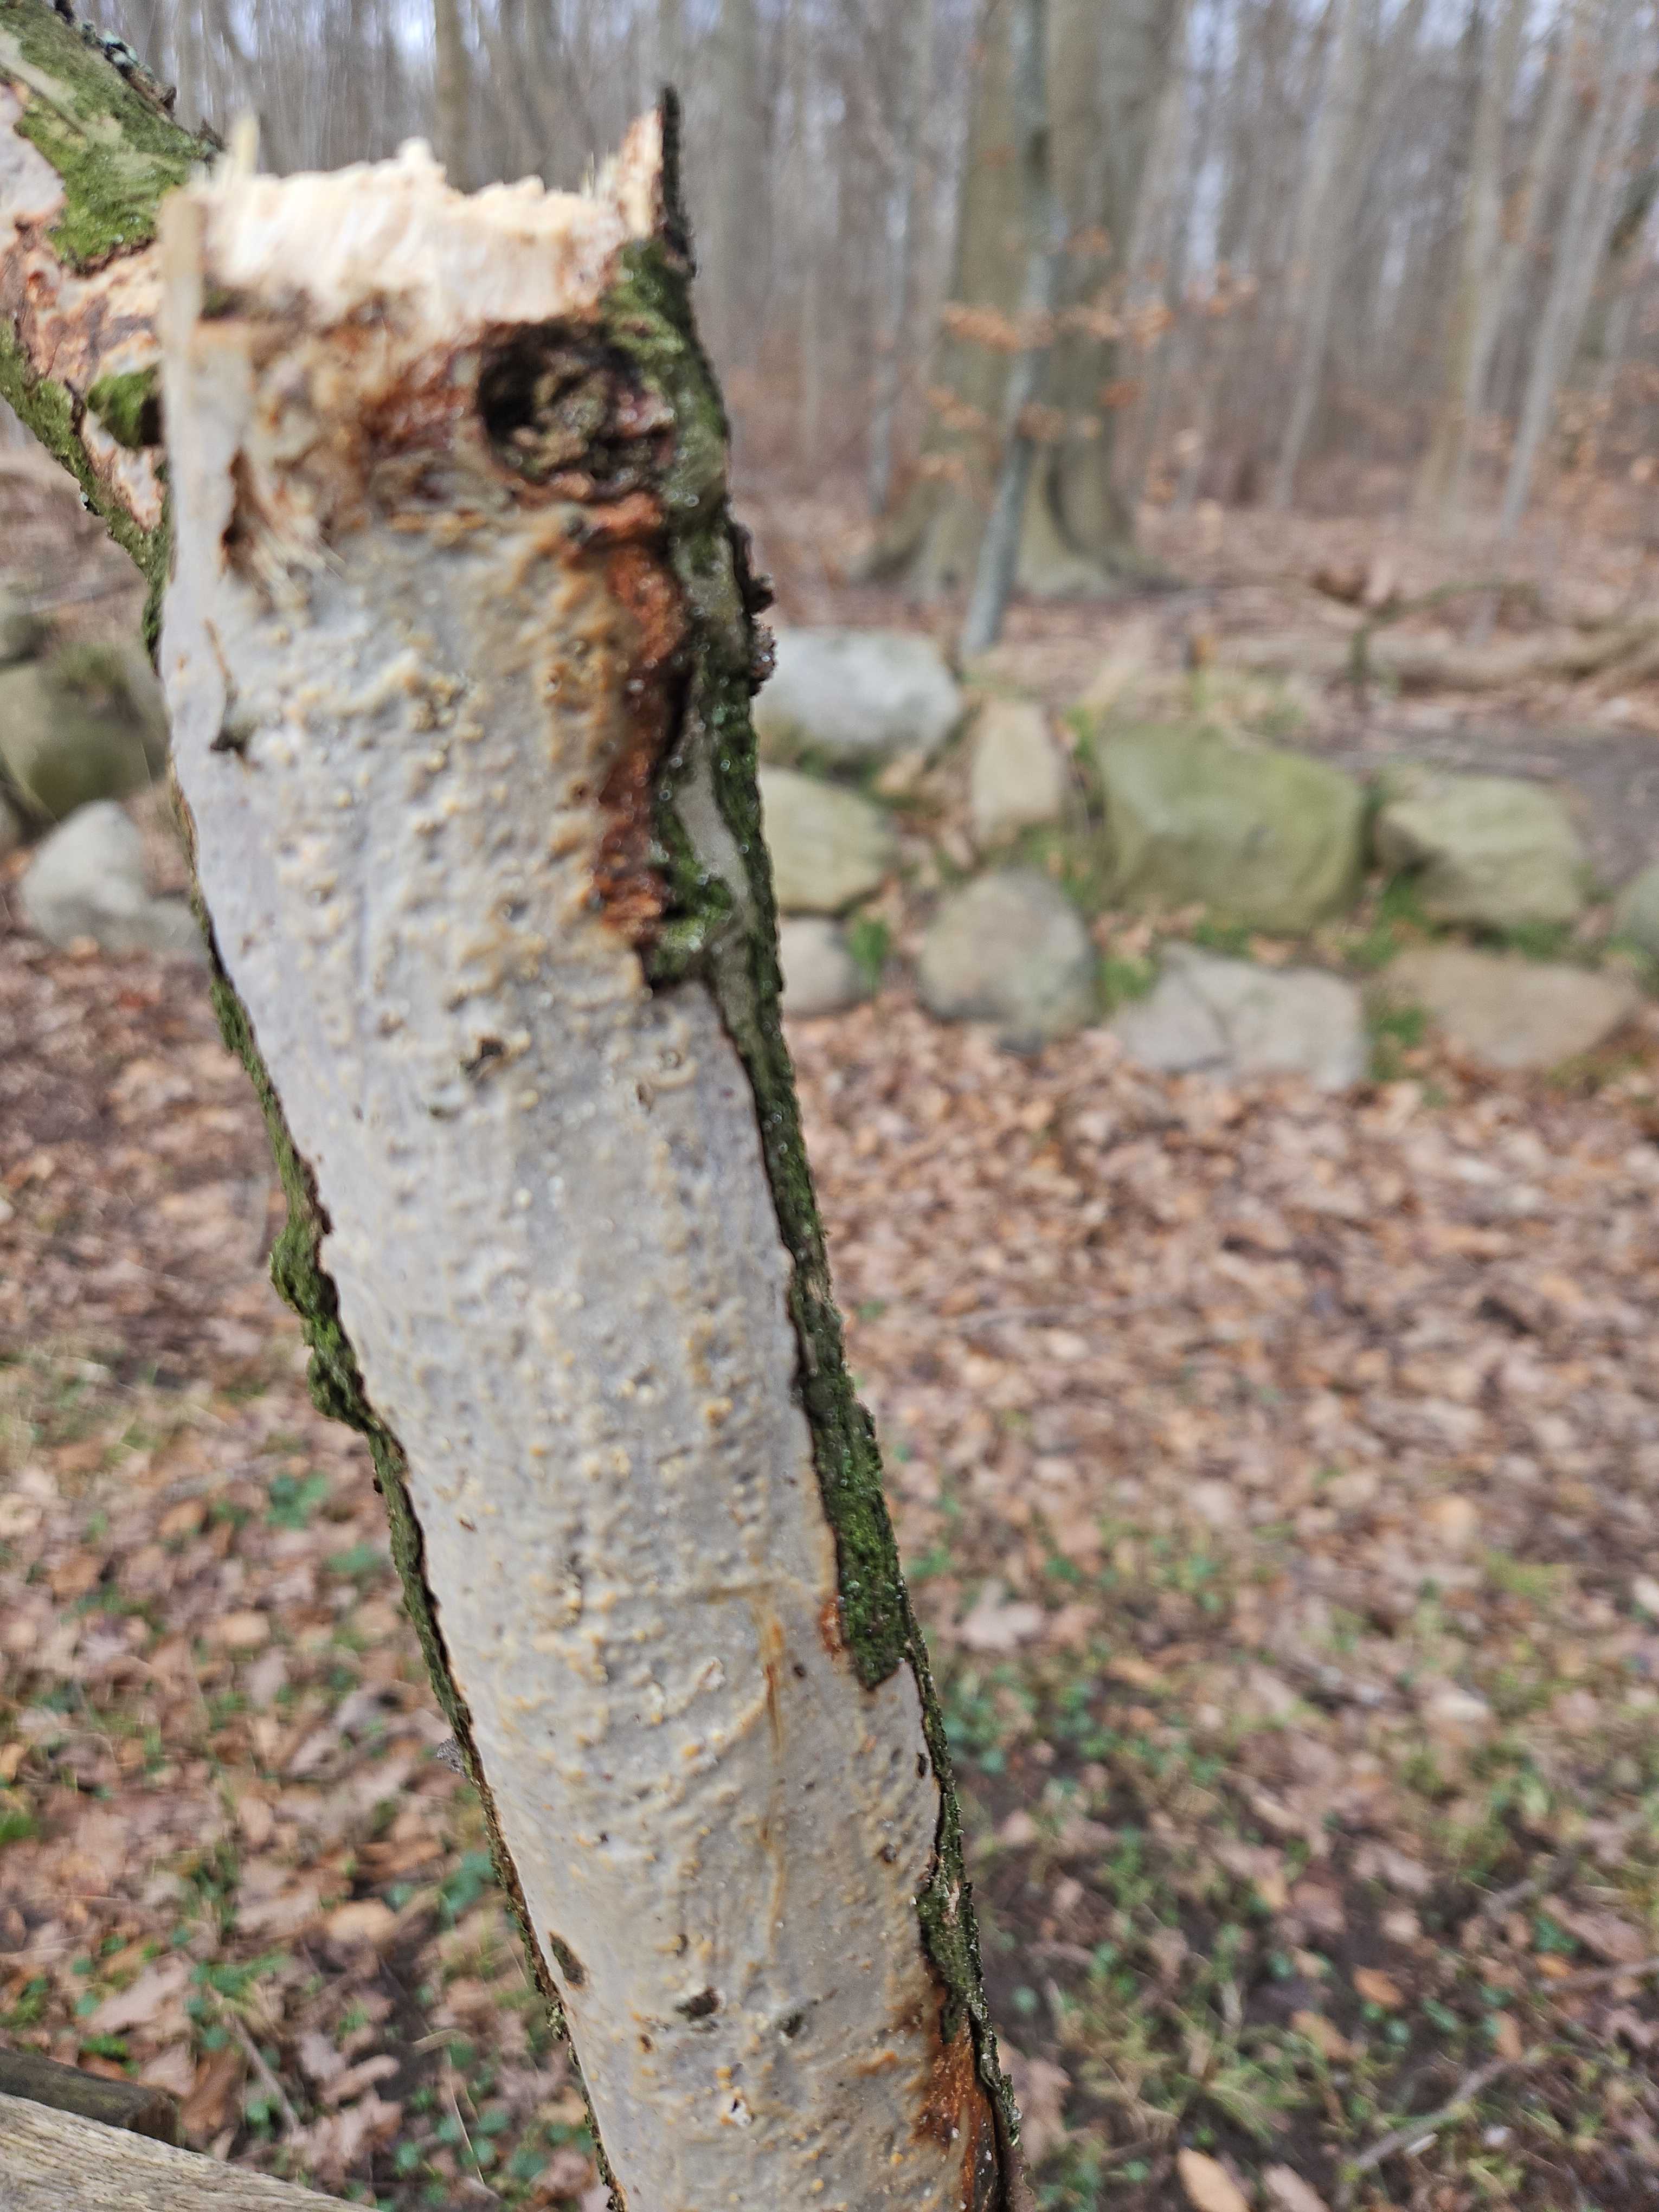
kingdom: Fungi
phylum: Basidiomycota
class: Agaricomycetes
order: Corticiales
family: Vuilleminiaceae
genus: Vuilleminia
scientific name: Vuilleminia comedens
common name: almindelig barksprænger
